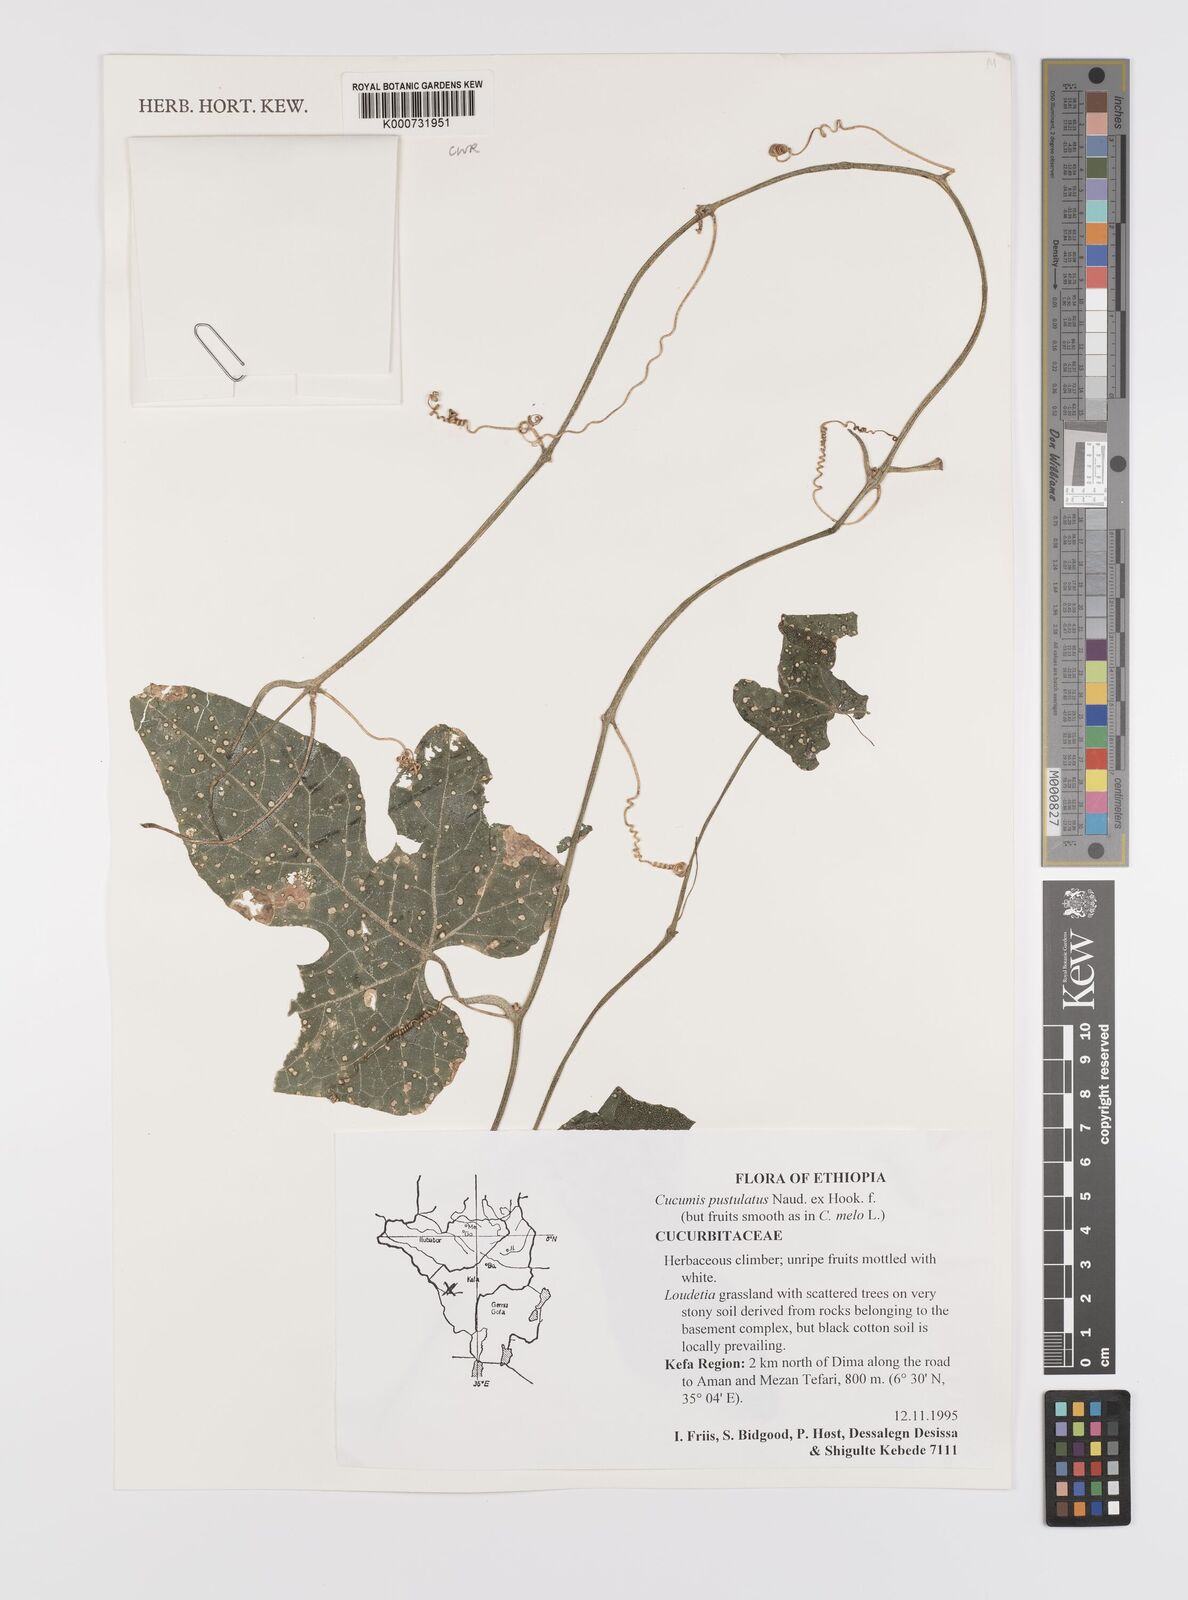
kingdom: Plantae
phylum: Tracheophyta
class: Magnoliopsida
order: Cucurbitales
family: Cucurbitaceae
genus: Cucumis
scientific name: Cucumis pustulatus
